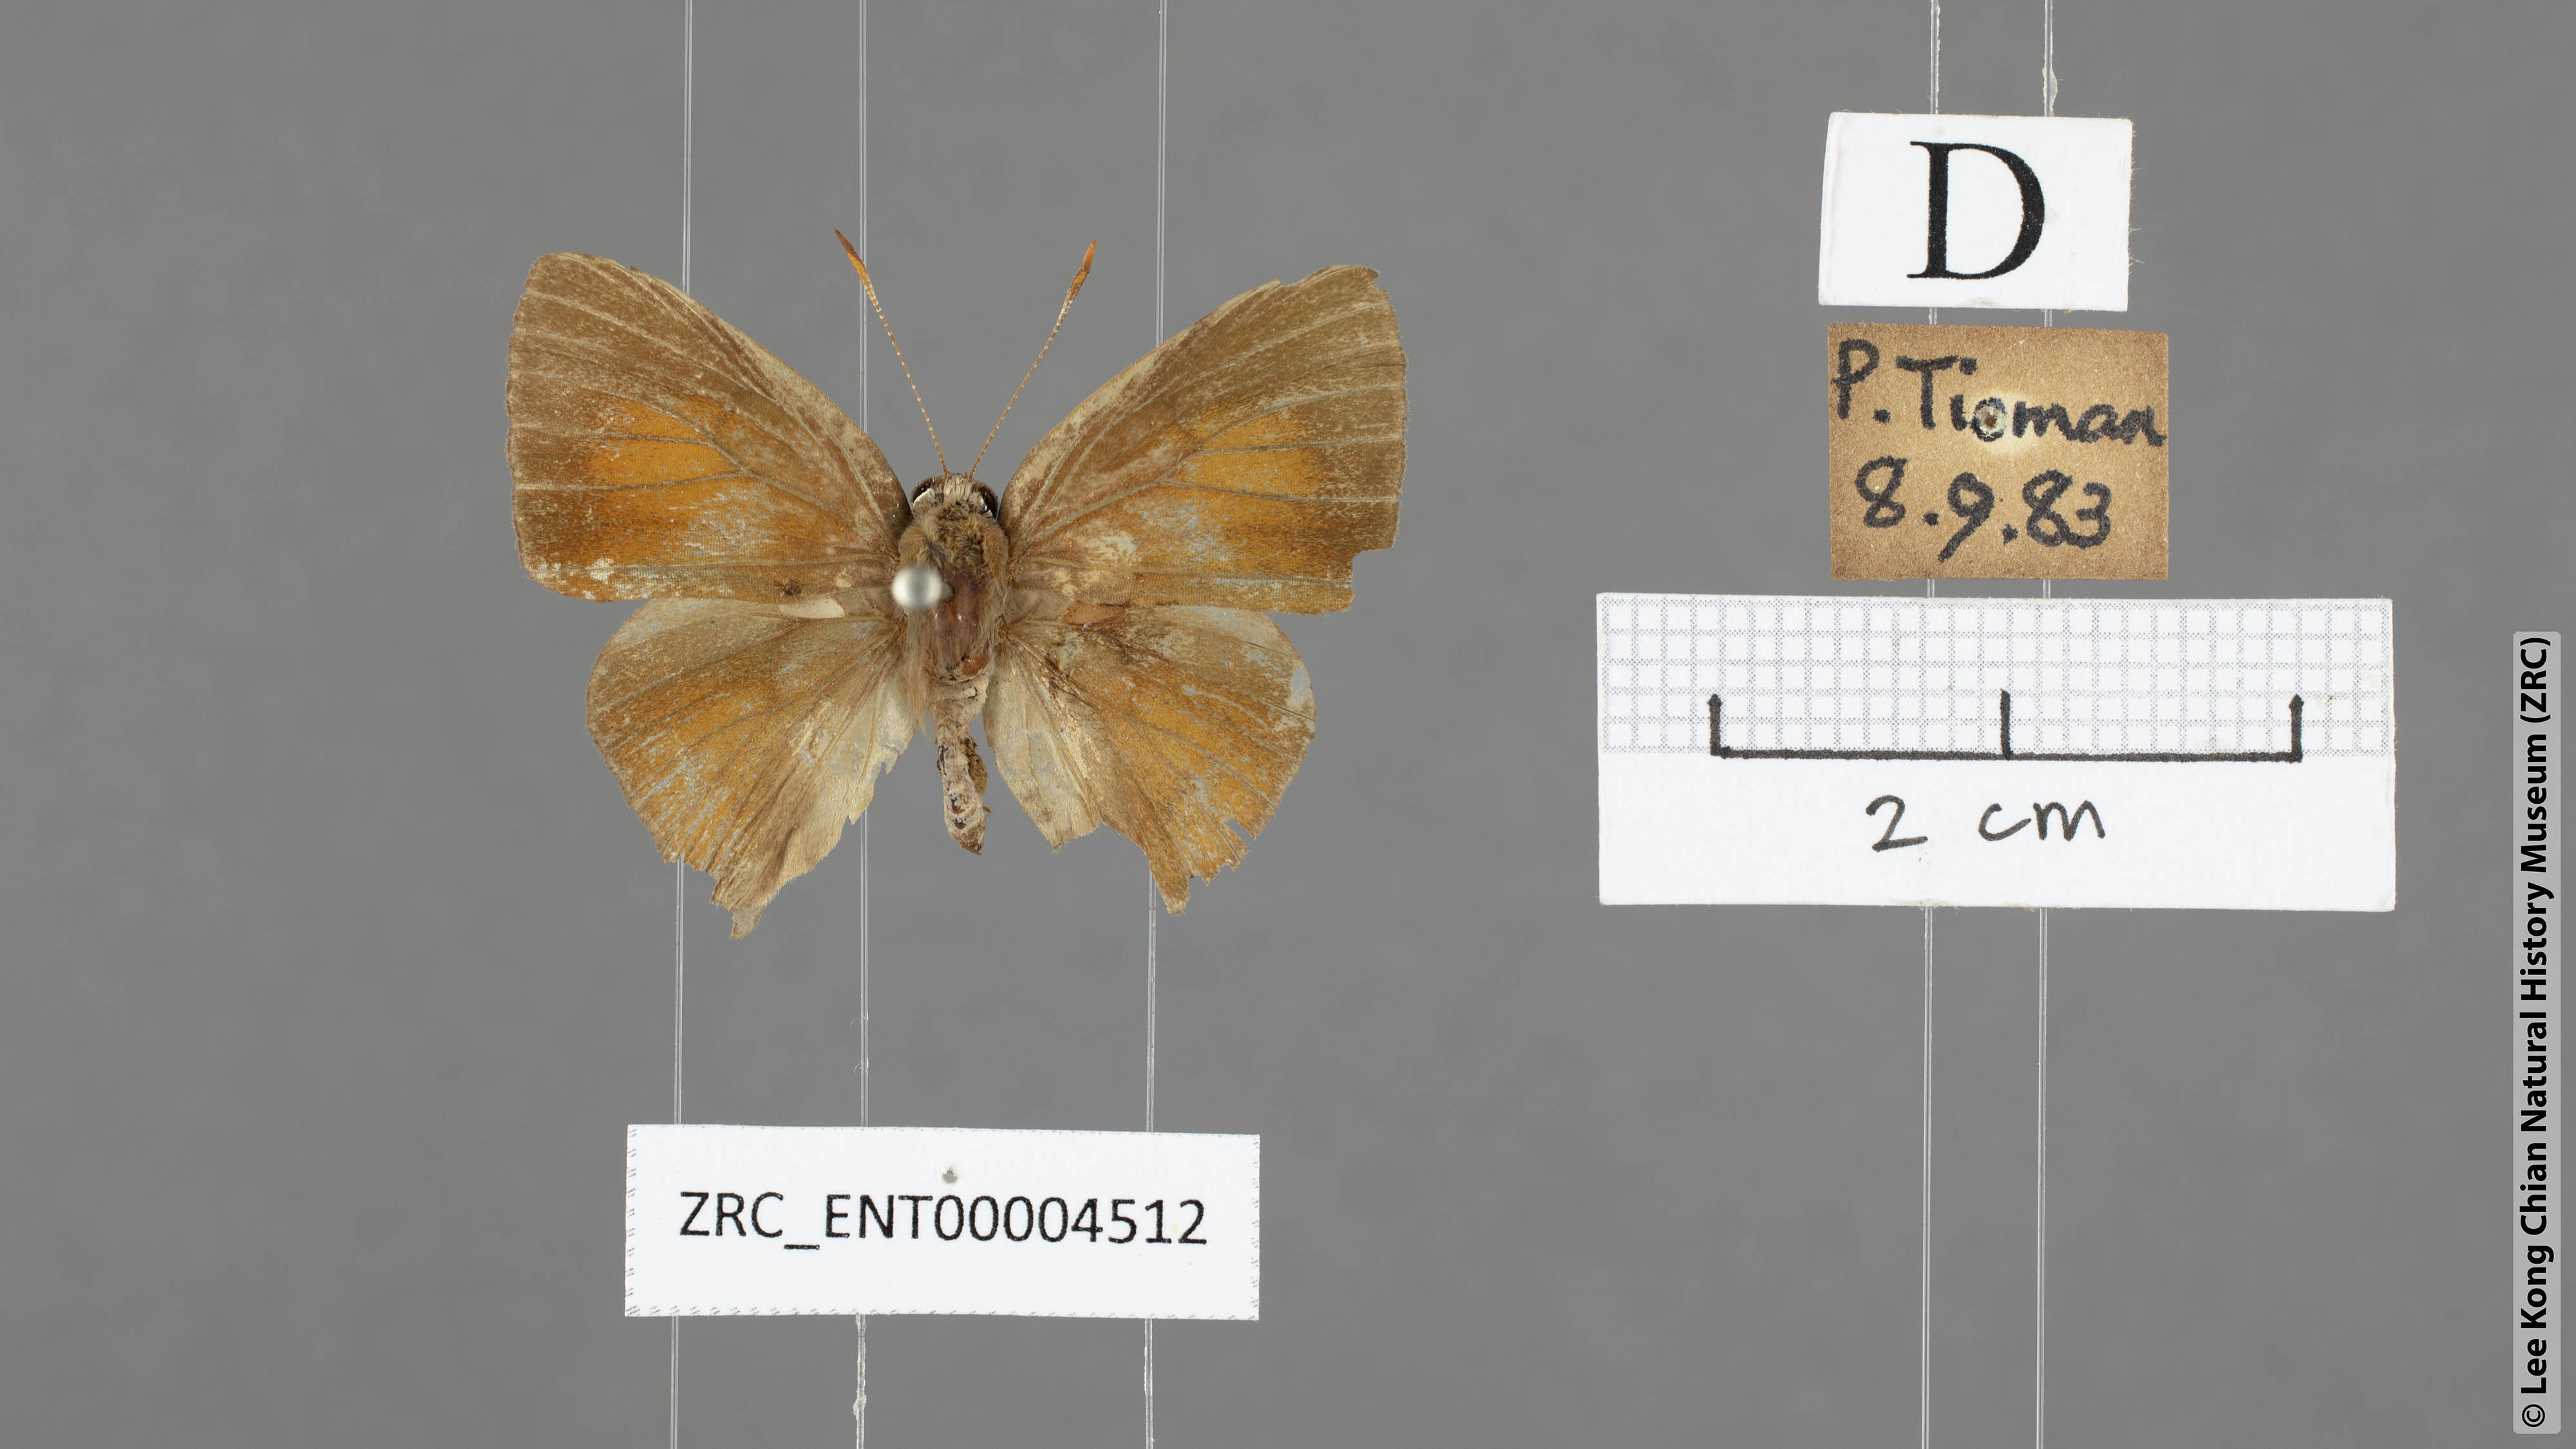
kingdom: Animalia
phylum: Arthropoda
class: Insecta
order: Lepidoptera
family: Lycaenidae
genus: Rapala
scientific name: Rapala pheretima
